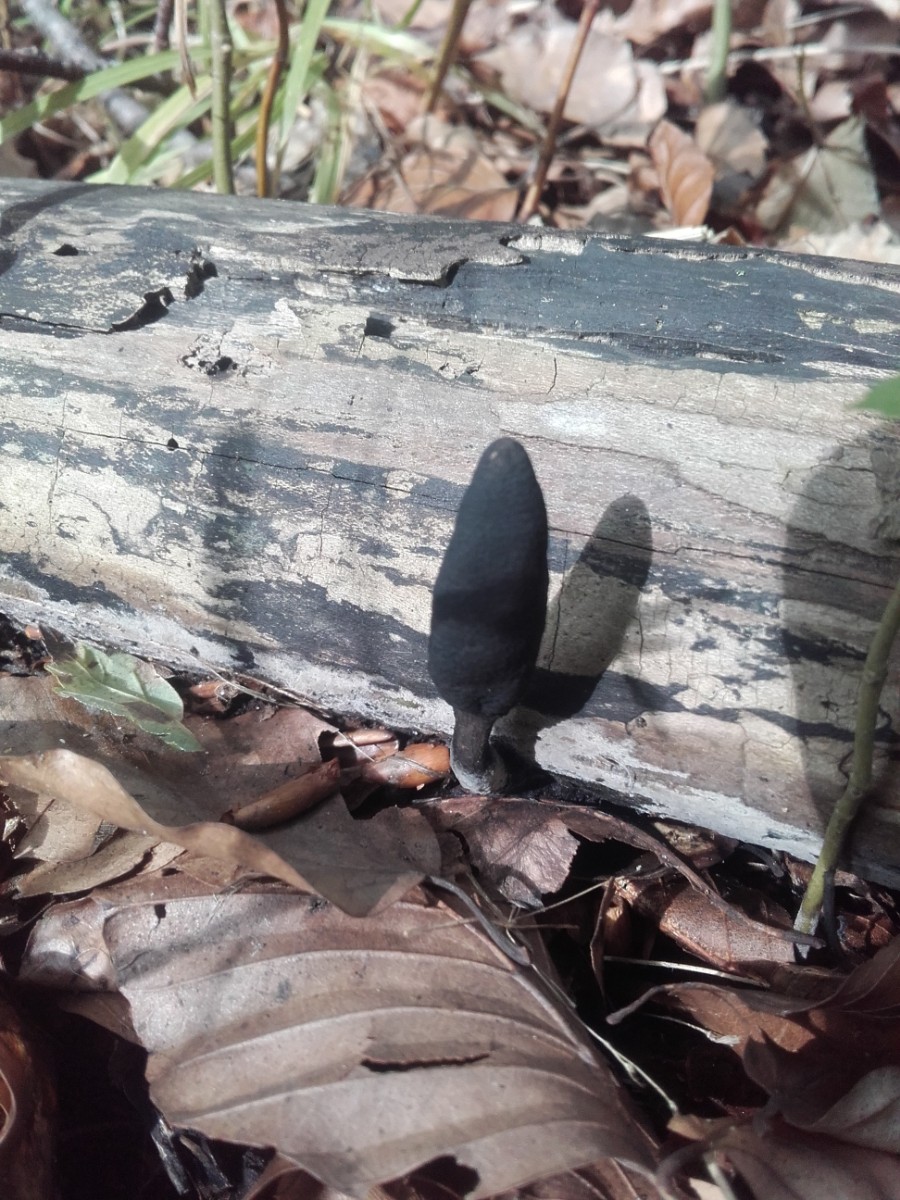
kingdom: Fungi
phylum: Ascomycota
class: Sordariomycetes
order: Xylariales
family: Xylariaceae
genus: Xylaria
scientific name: Xylaria longipes
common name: slank stødsvamp
